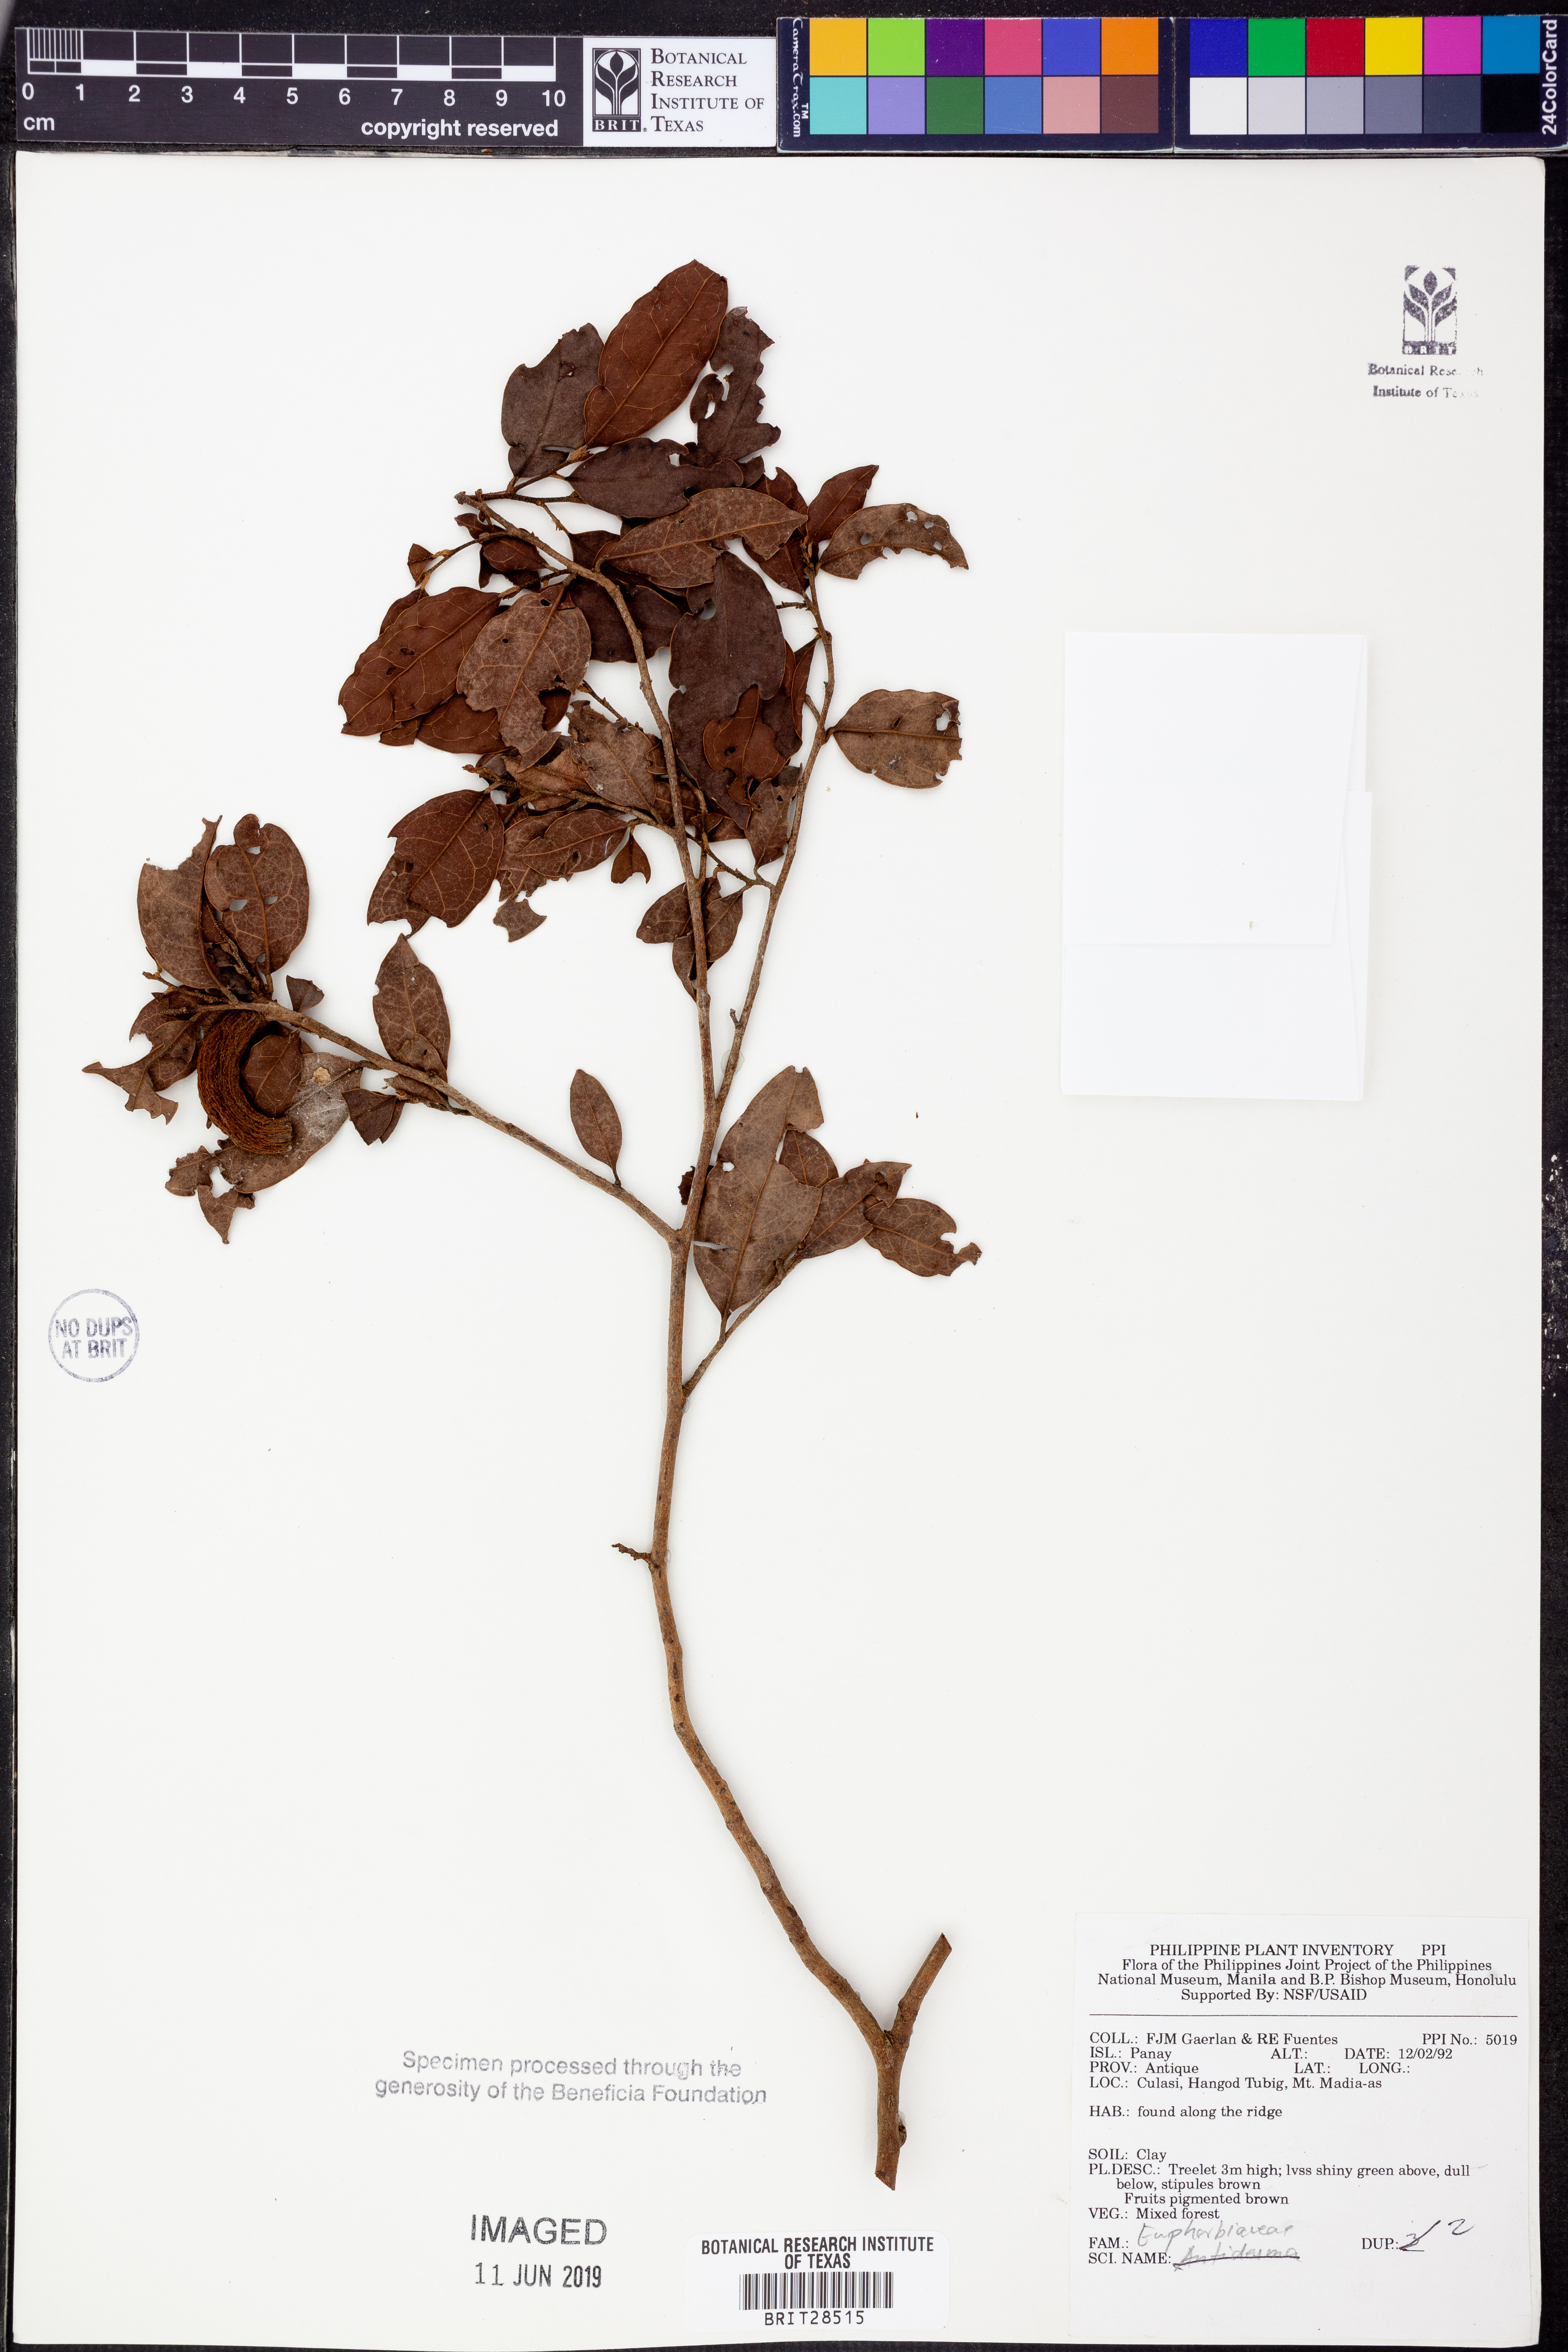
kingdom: Plantae
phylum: Tracheophyta
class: Magnoliopsida
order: Malpighiales
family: Euphorbiaceae
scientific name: Euphorbiaceae
